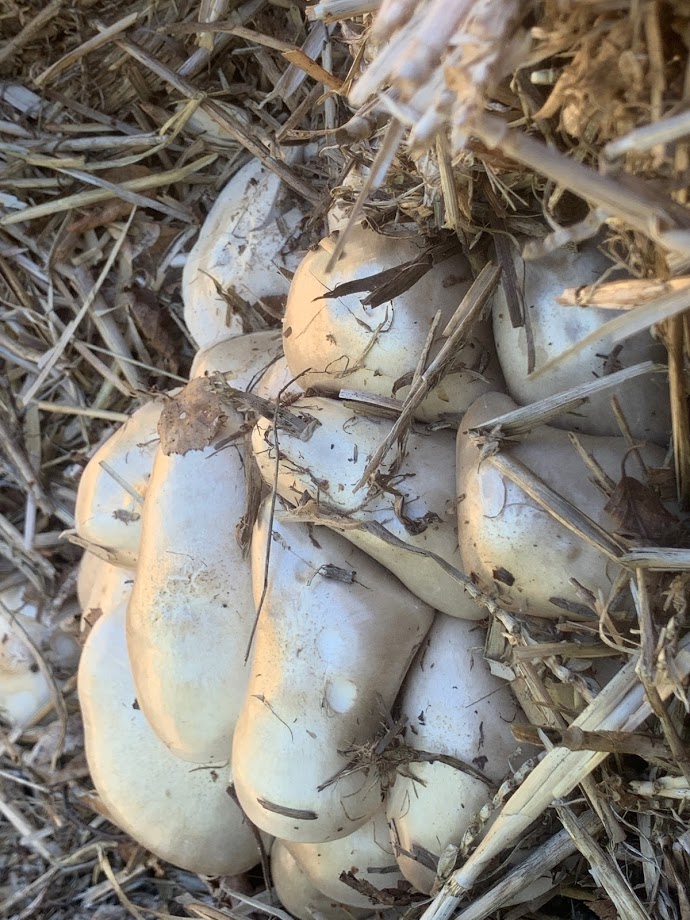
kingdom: Fungi
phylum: Basidiomycota
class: Agaricomycetes
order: Agaricales
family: Pluteaceae
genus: Pluteus
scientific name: Pluteus
